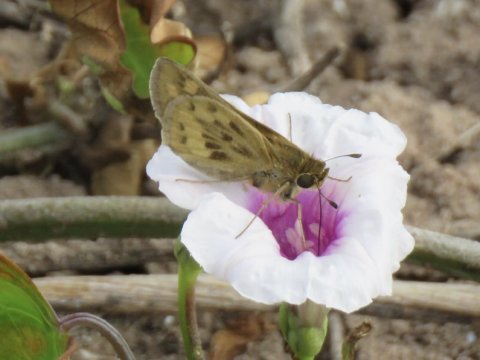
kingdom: Animalia
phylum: Arthropoda
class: Insecta
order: Lepidoptera
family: Hesperiidae
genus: Hylephila
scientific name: Hylephila phyleus
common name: Fiery Skipper
